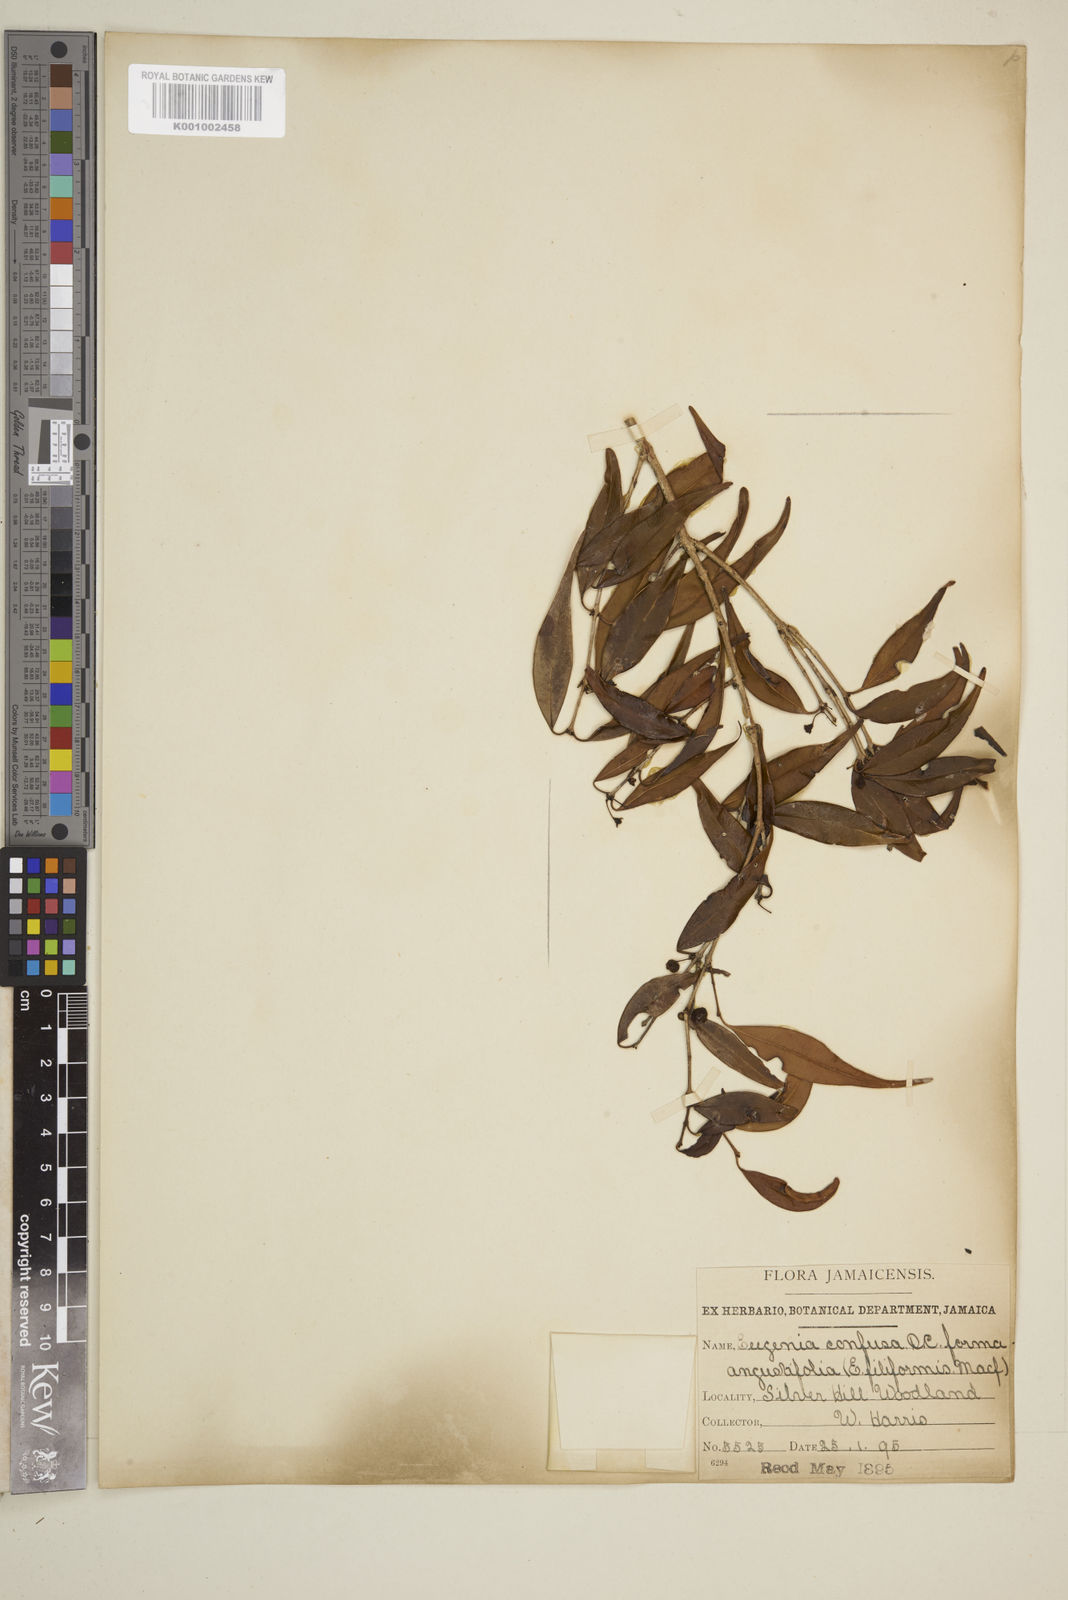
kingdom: Plantae
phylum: Tracheophyta
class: Magnoliopsida
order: Myrtales
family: Myrtaceae
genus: Eugenia
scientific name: Eugenia confusa
